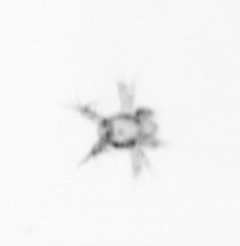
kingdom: Animalia
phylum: Arthropoda
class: Copepoda
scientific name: Copepoda
